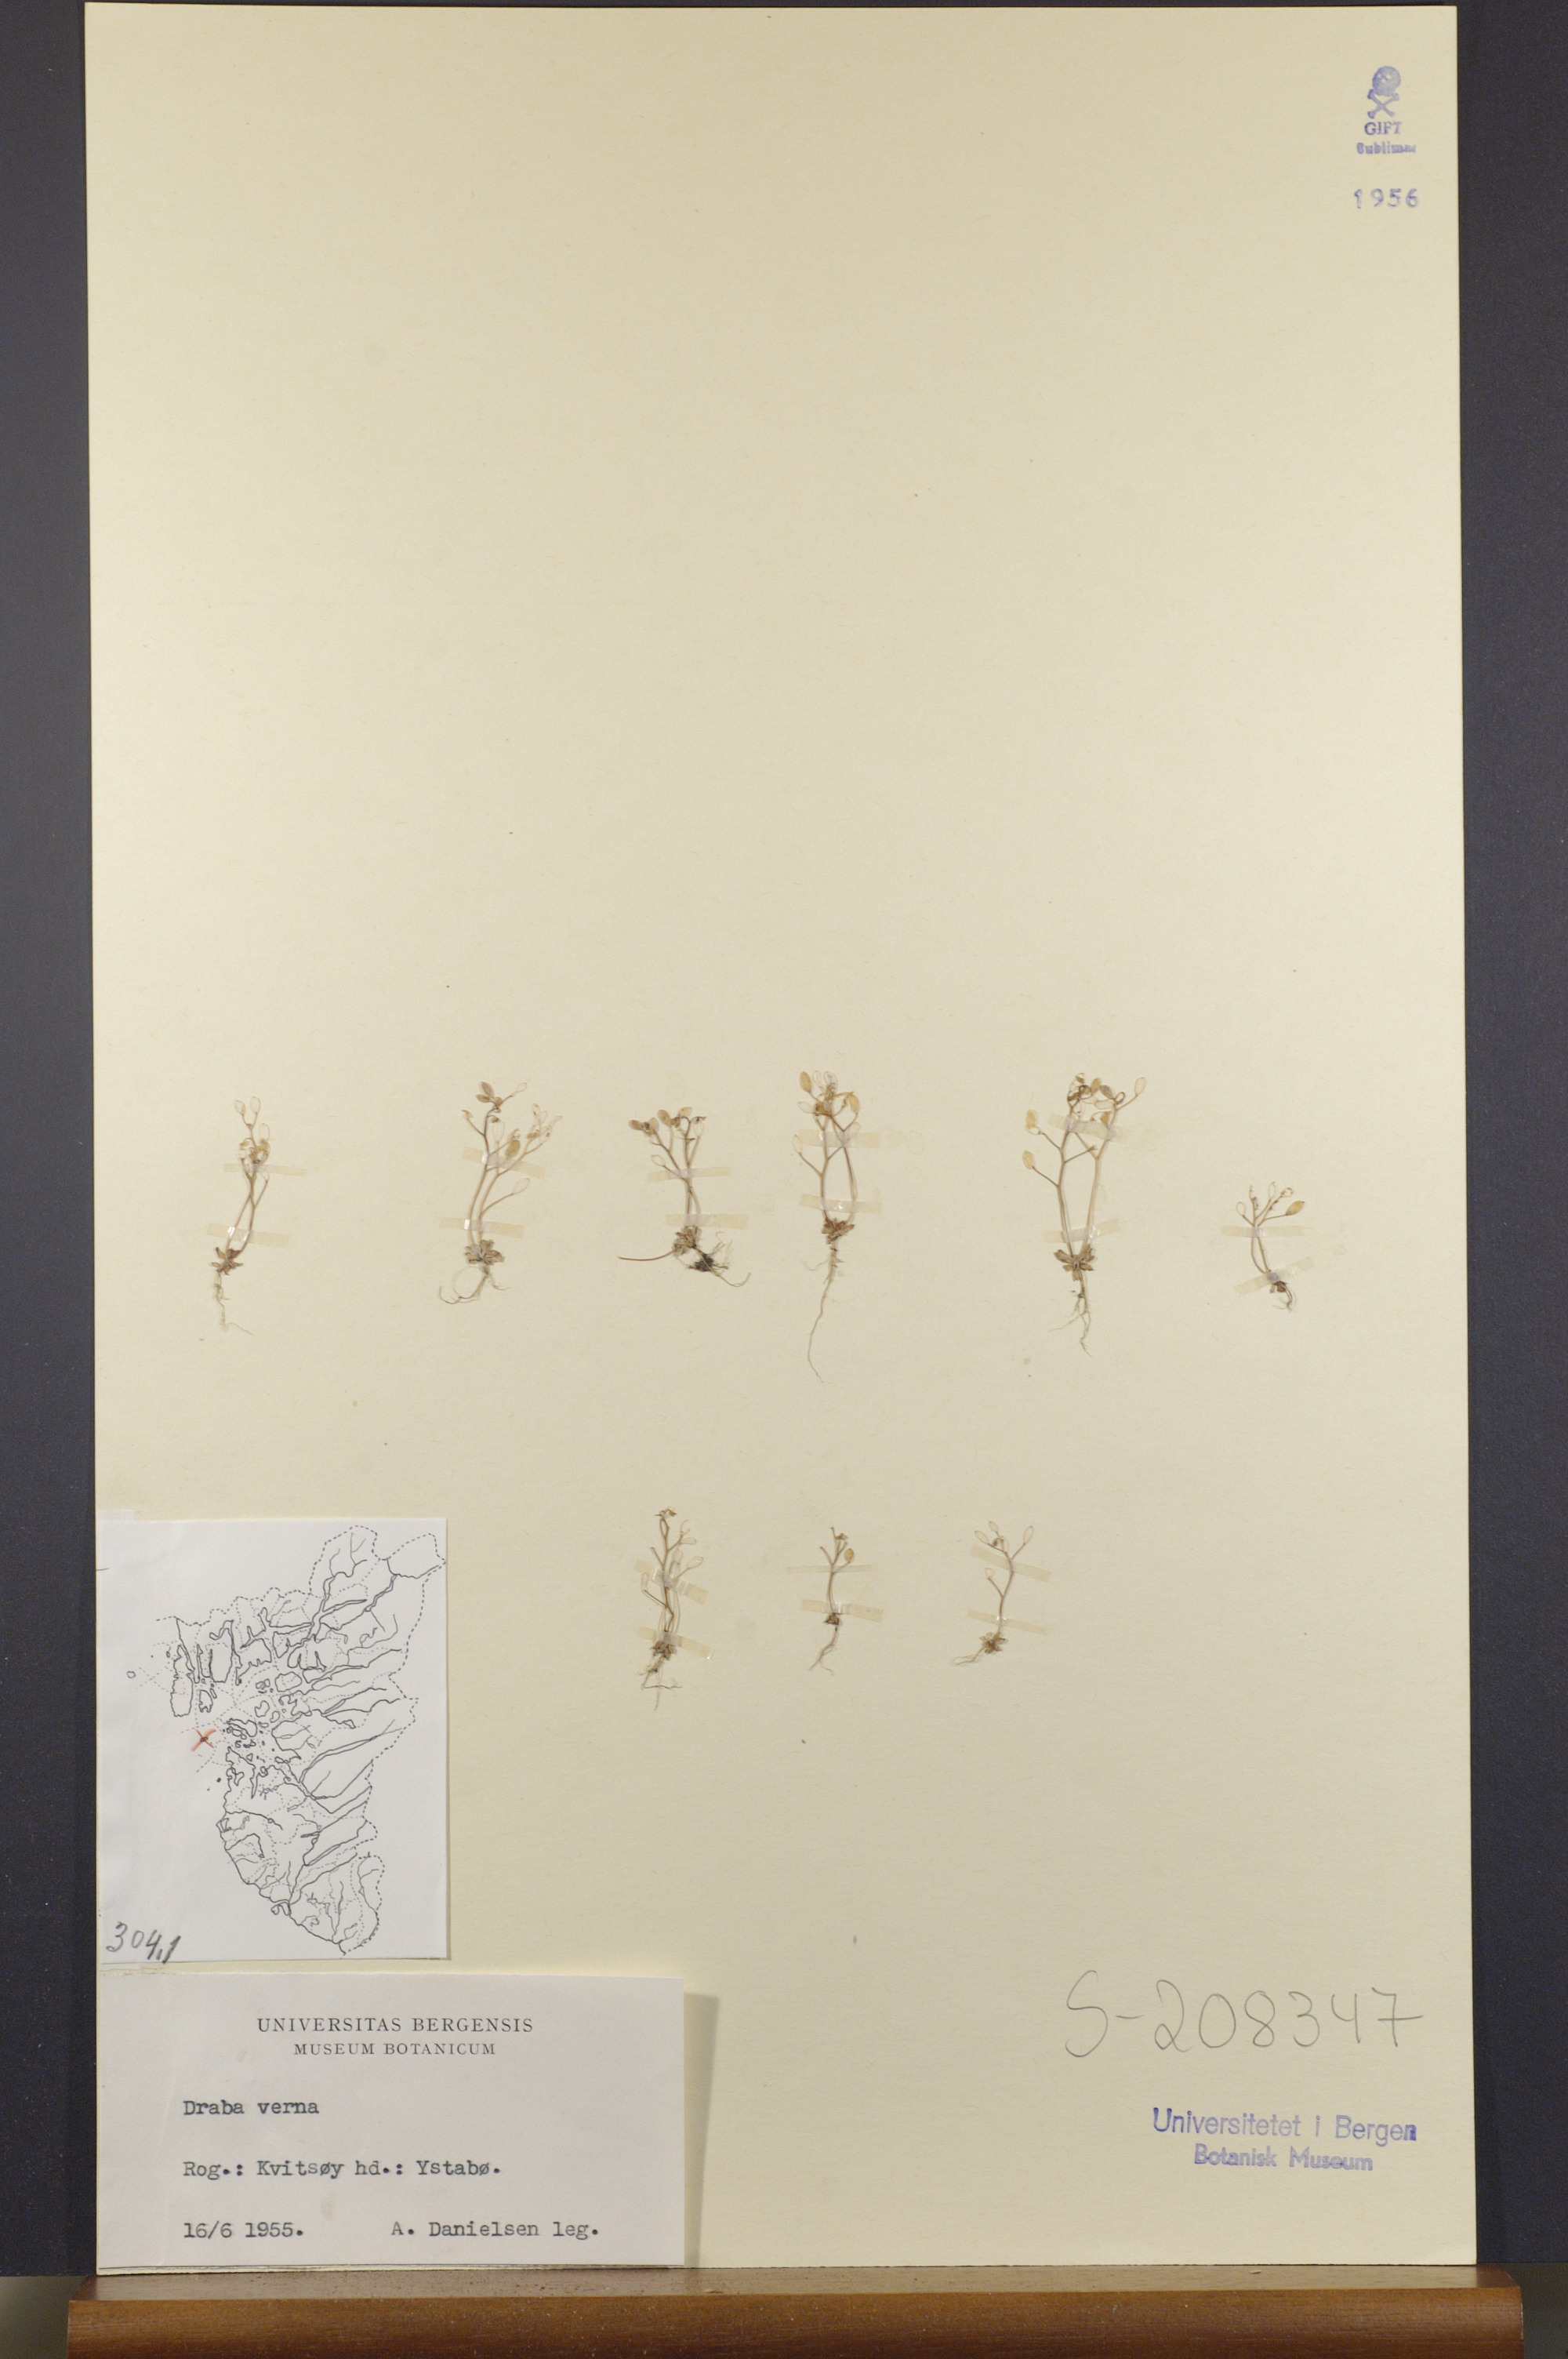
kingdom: Plantae
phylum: Tracheophyta
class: Magnoliopsida
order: Brassicales
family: Brassicaceae
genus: Draba
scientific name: Draba verna
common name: Spring draba
